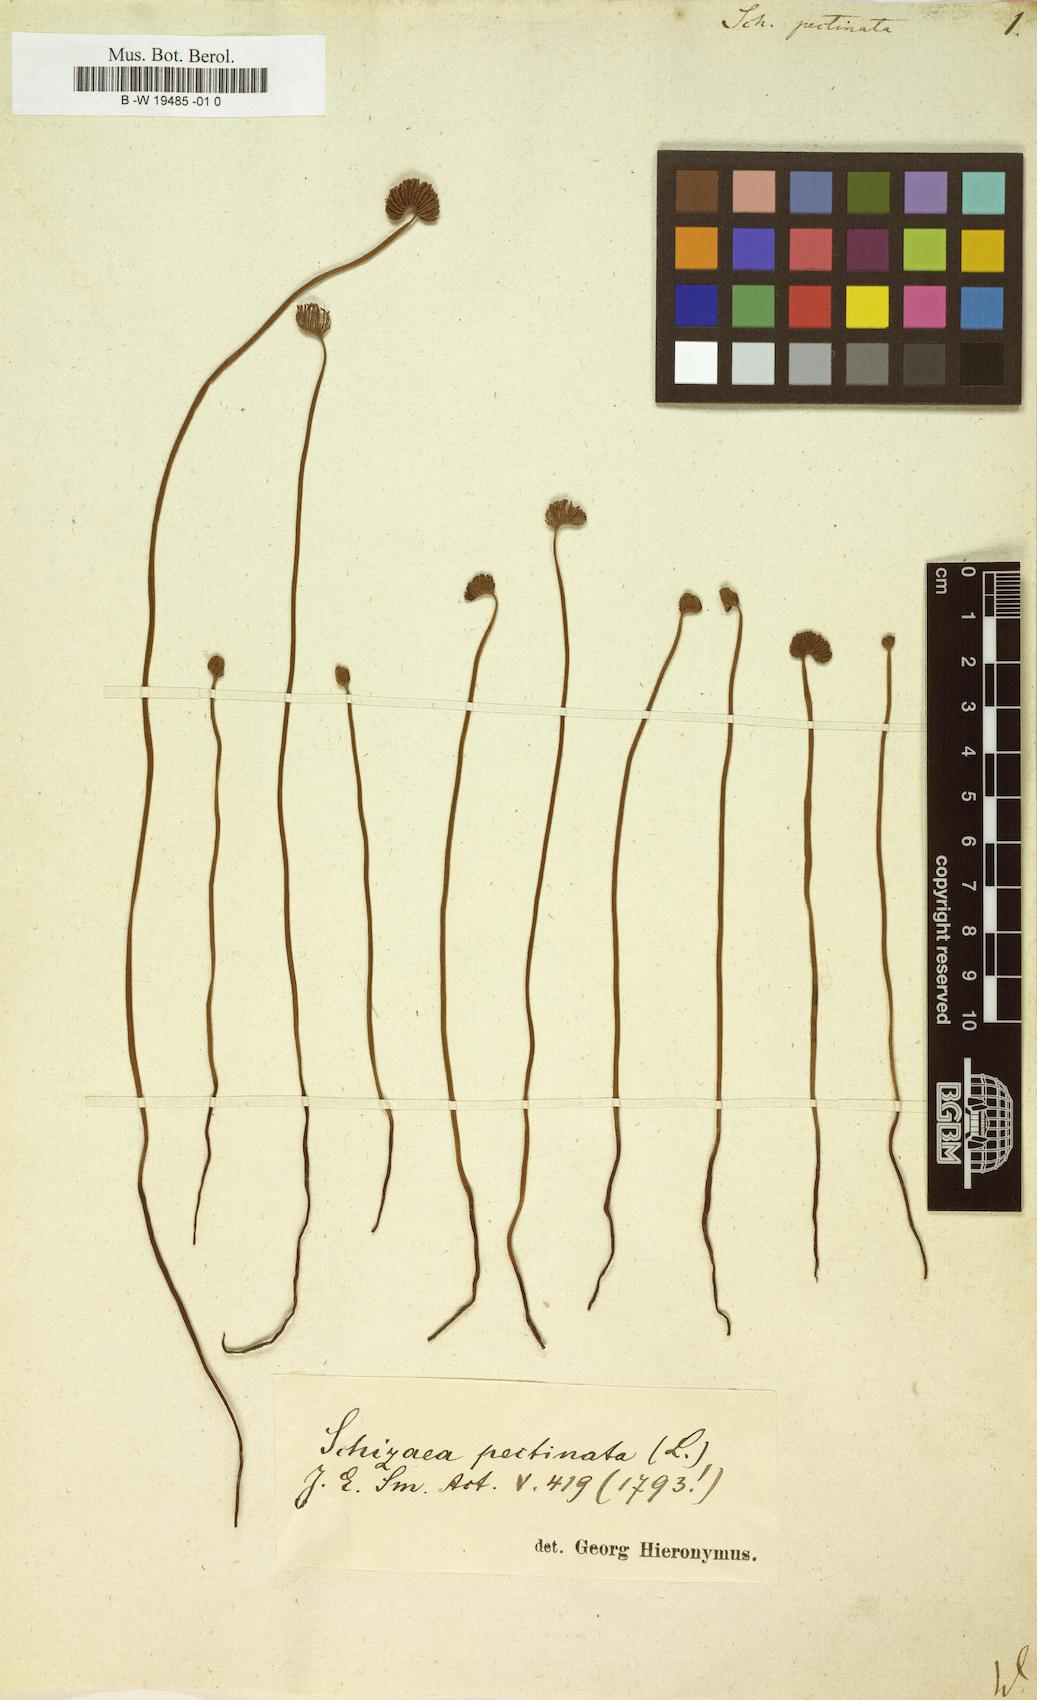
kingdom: Plantae
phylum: Tracheophyta
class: Polypodiopsida
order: Schizaeales
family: Schizaeaceae
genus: Schizaea
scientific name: Schizaea pectinata
